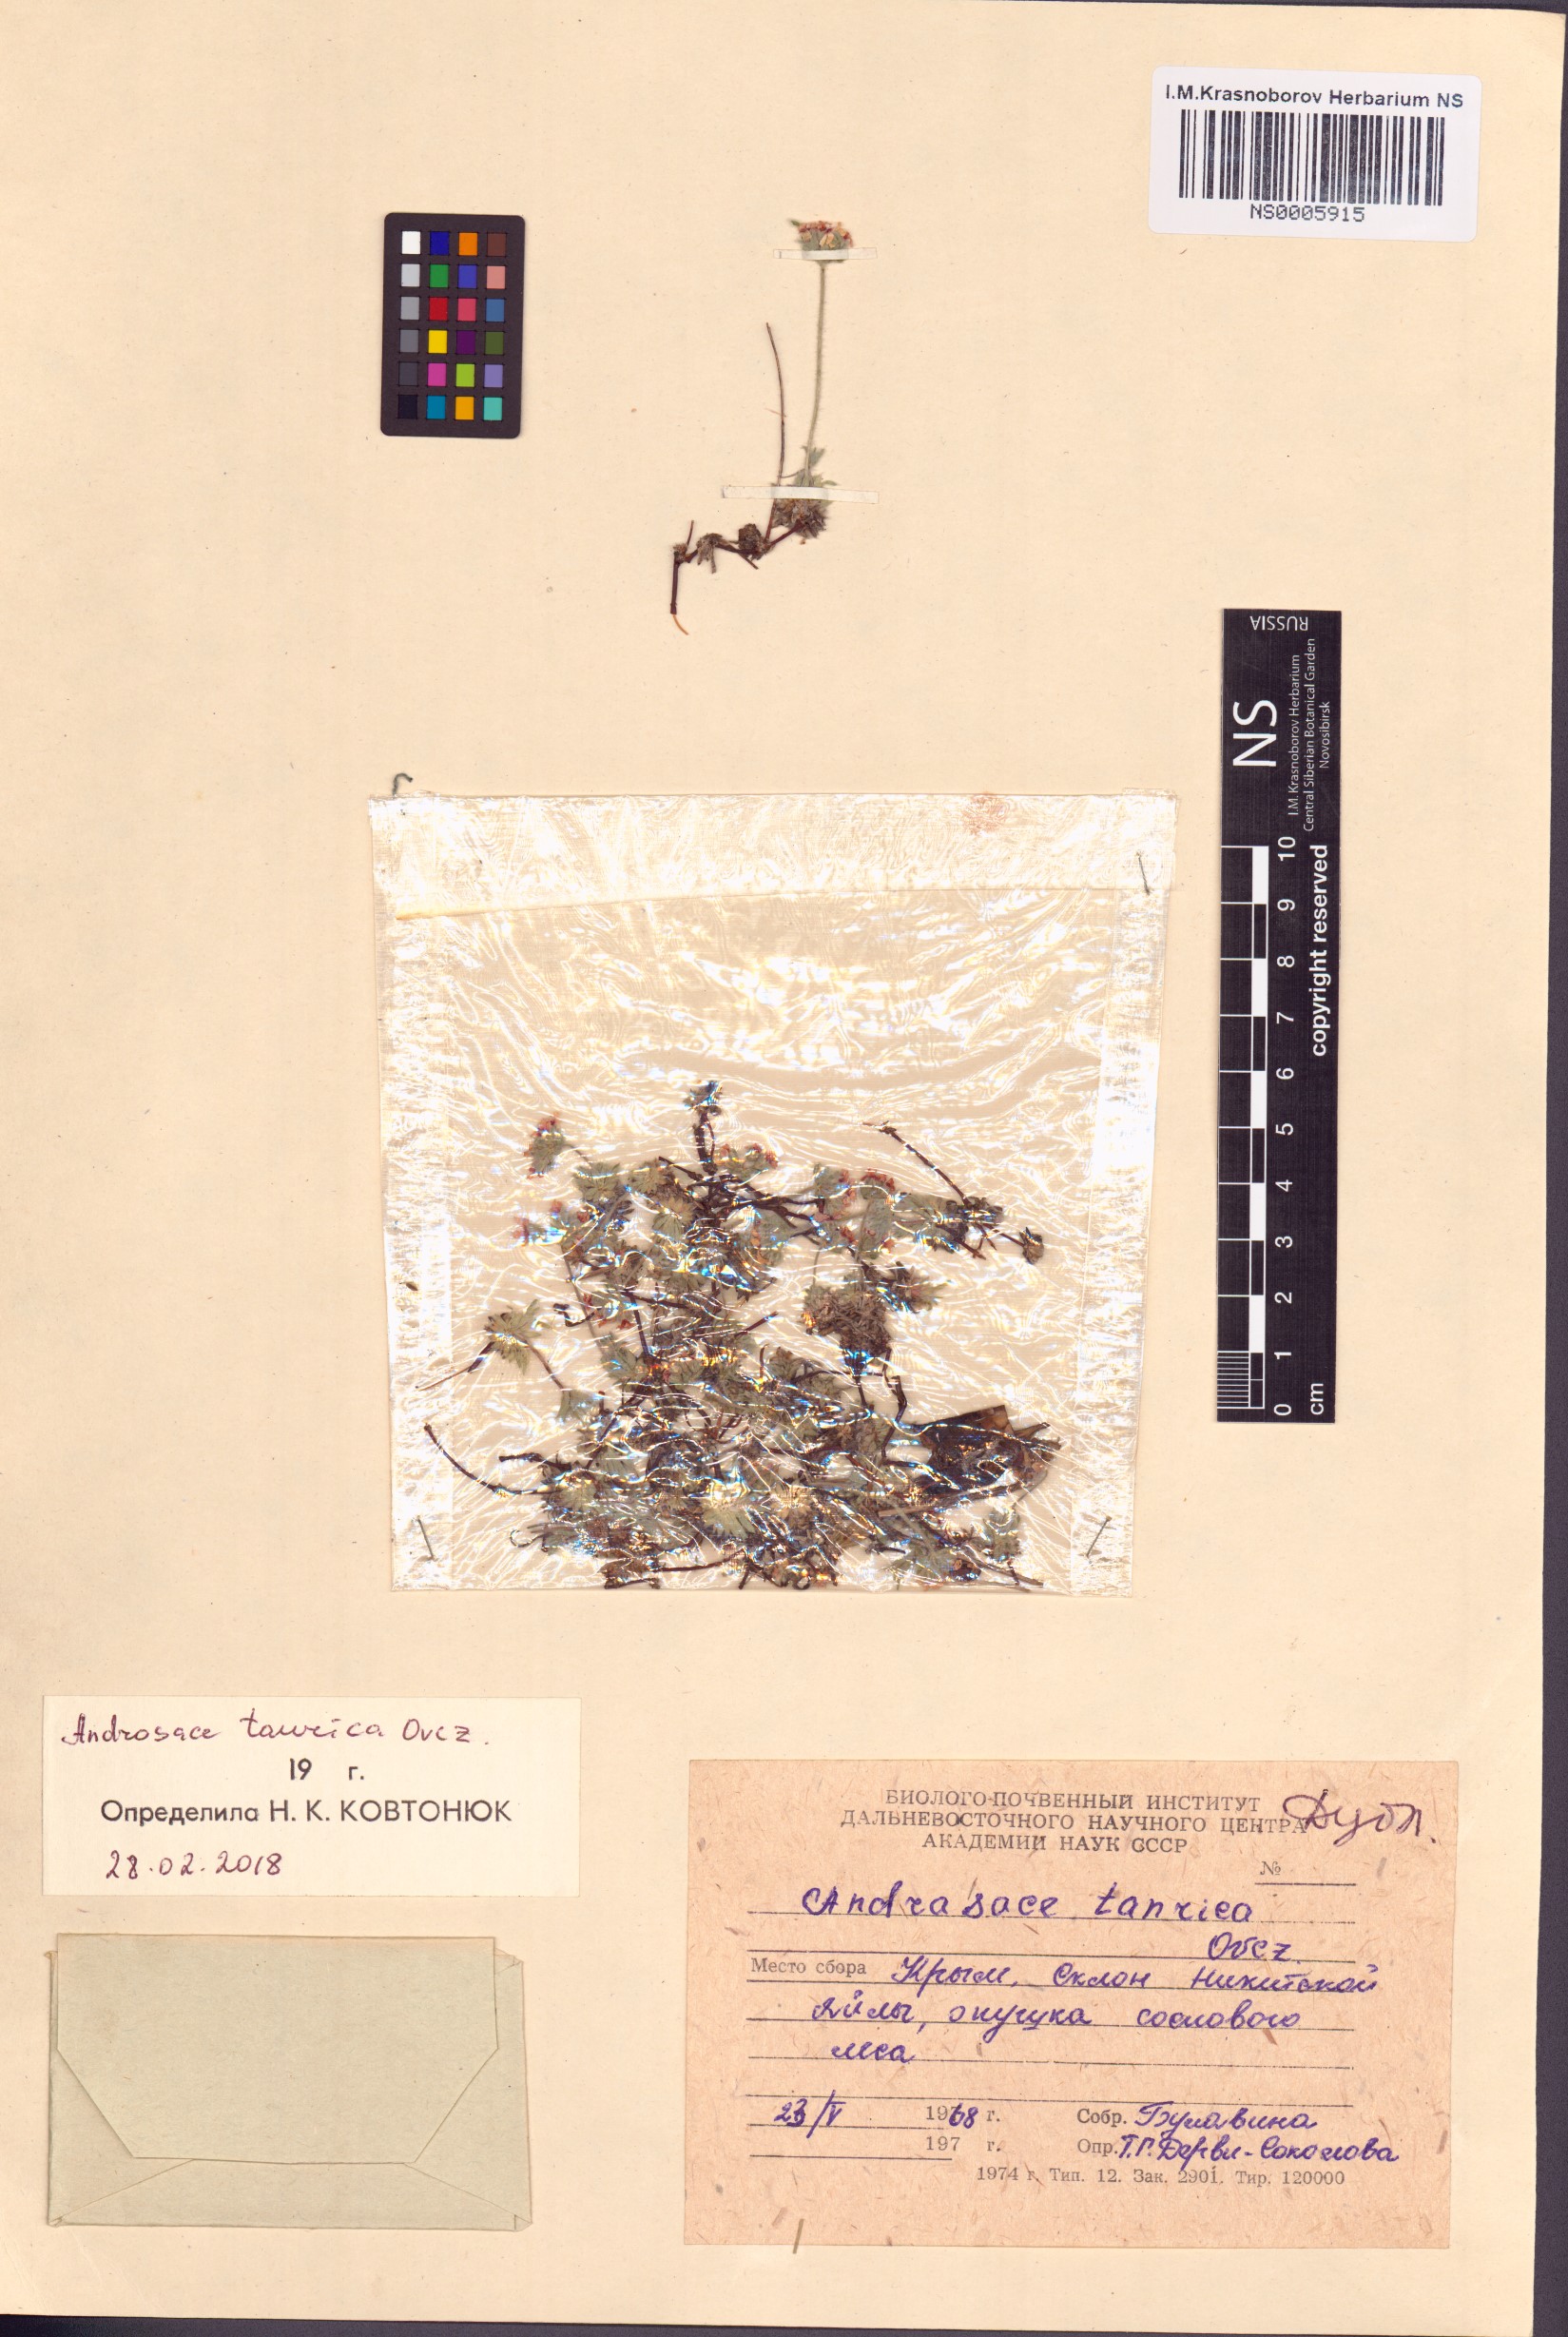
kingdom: Plantae
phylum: Tracheophyta
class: Magnoliopsida
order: Ericales
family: Primulaceae
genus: Androsace
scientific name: Androsace villosa
